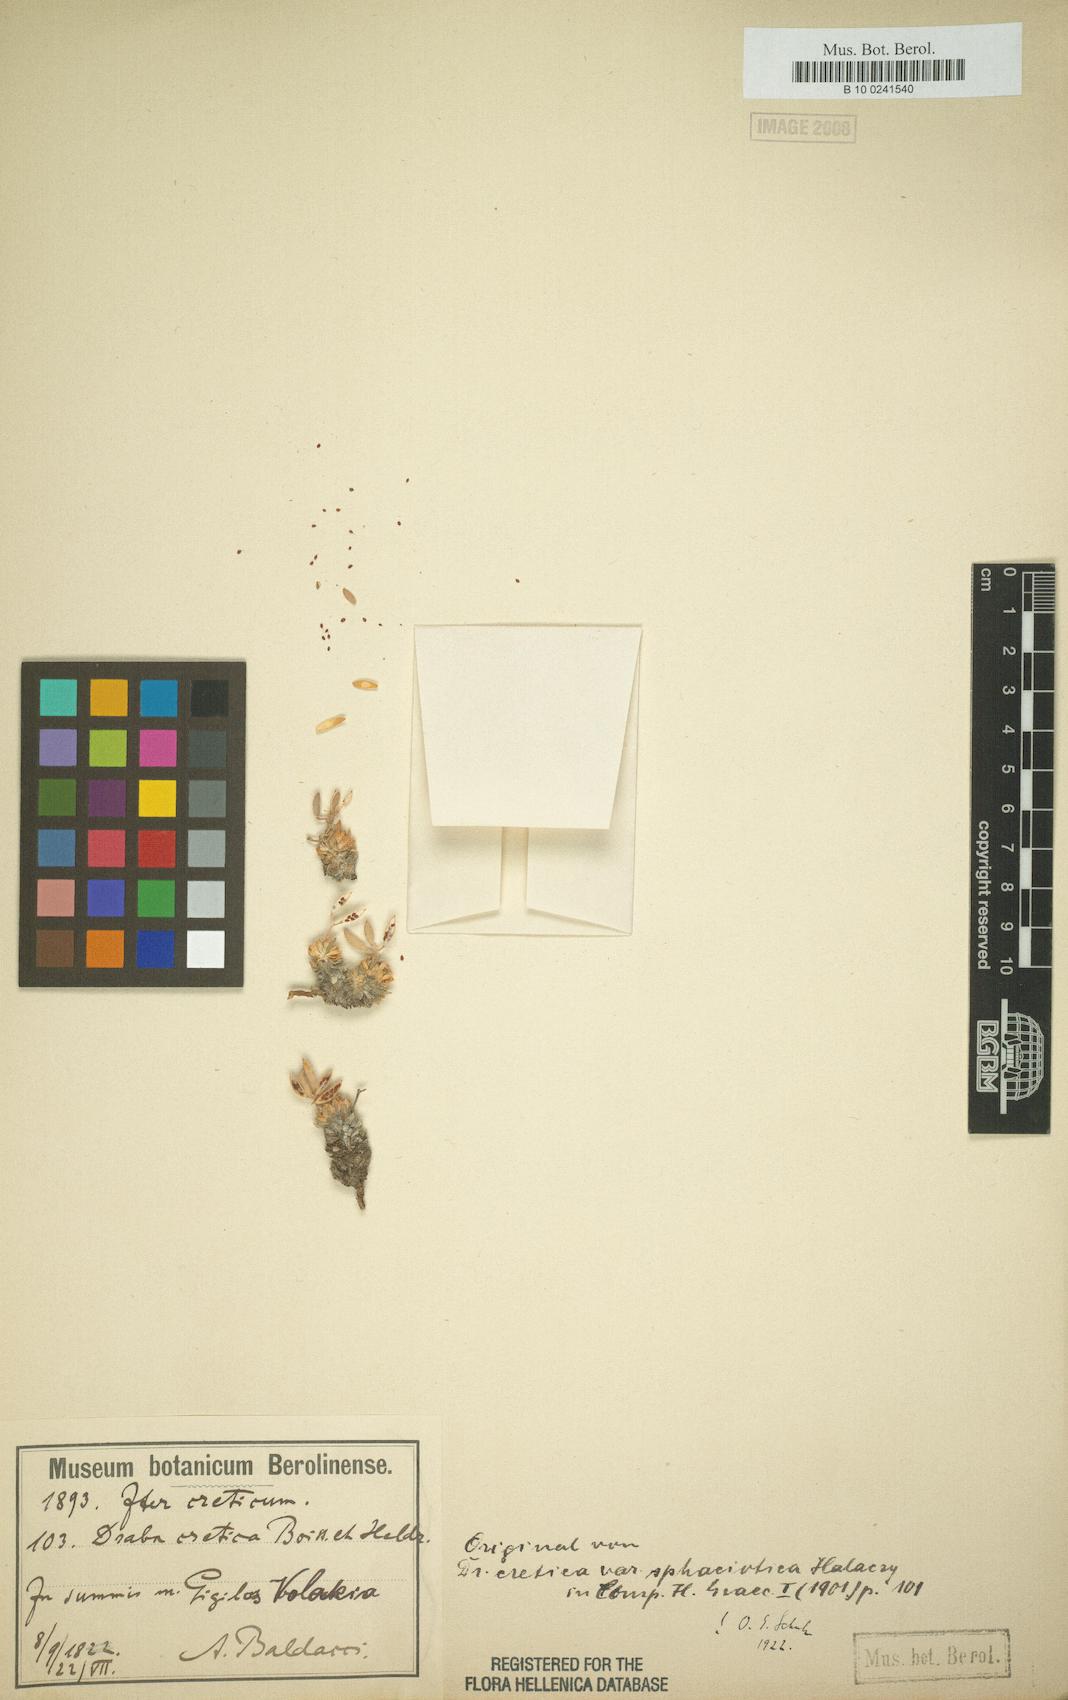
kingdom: Plantae
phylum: Tracheophyta
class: Magnoliopsida
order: Brassicales
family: Brassicaceae
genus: Draba
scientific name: Draba cretica
